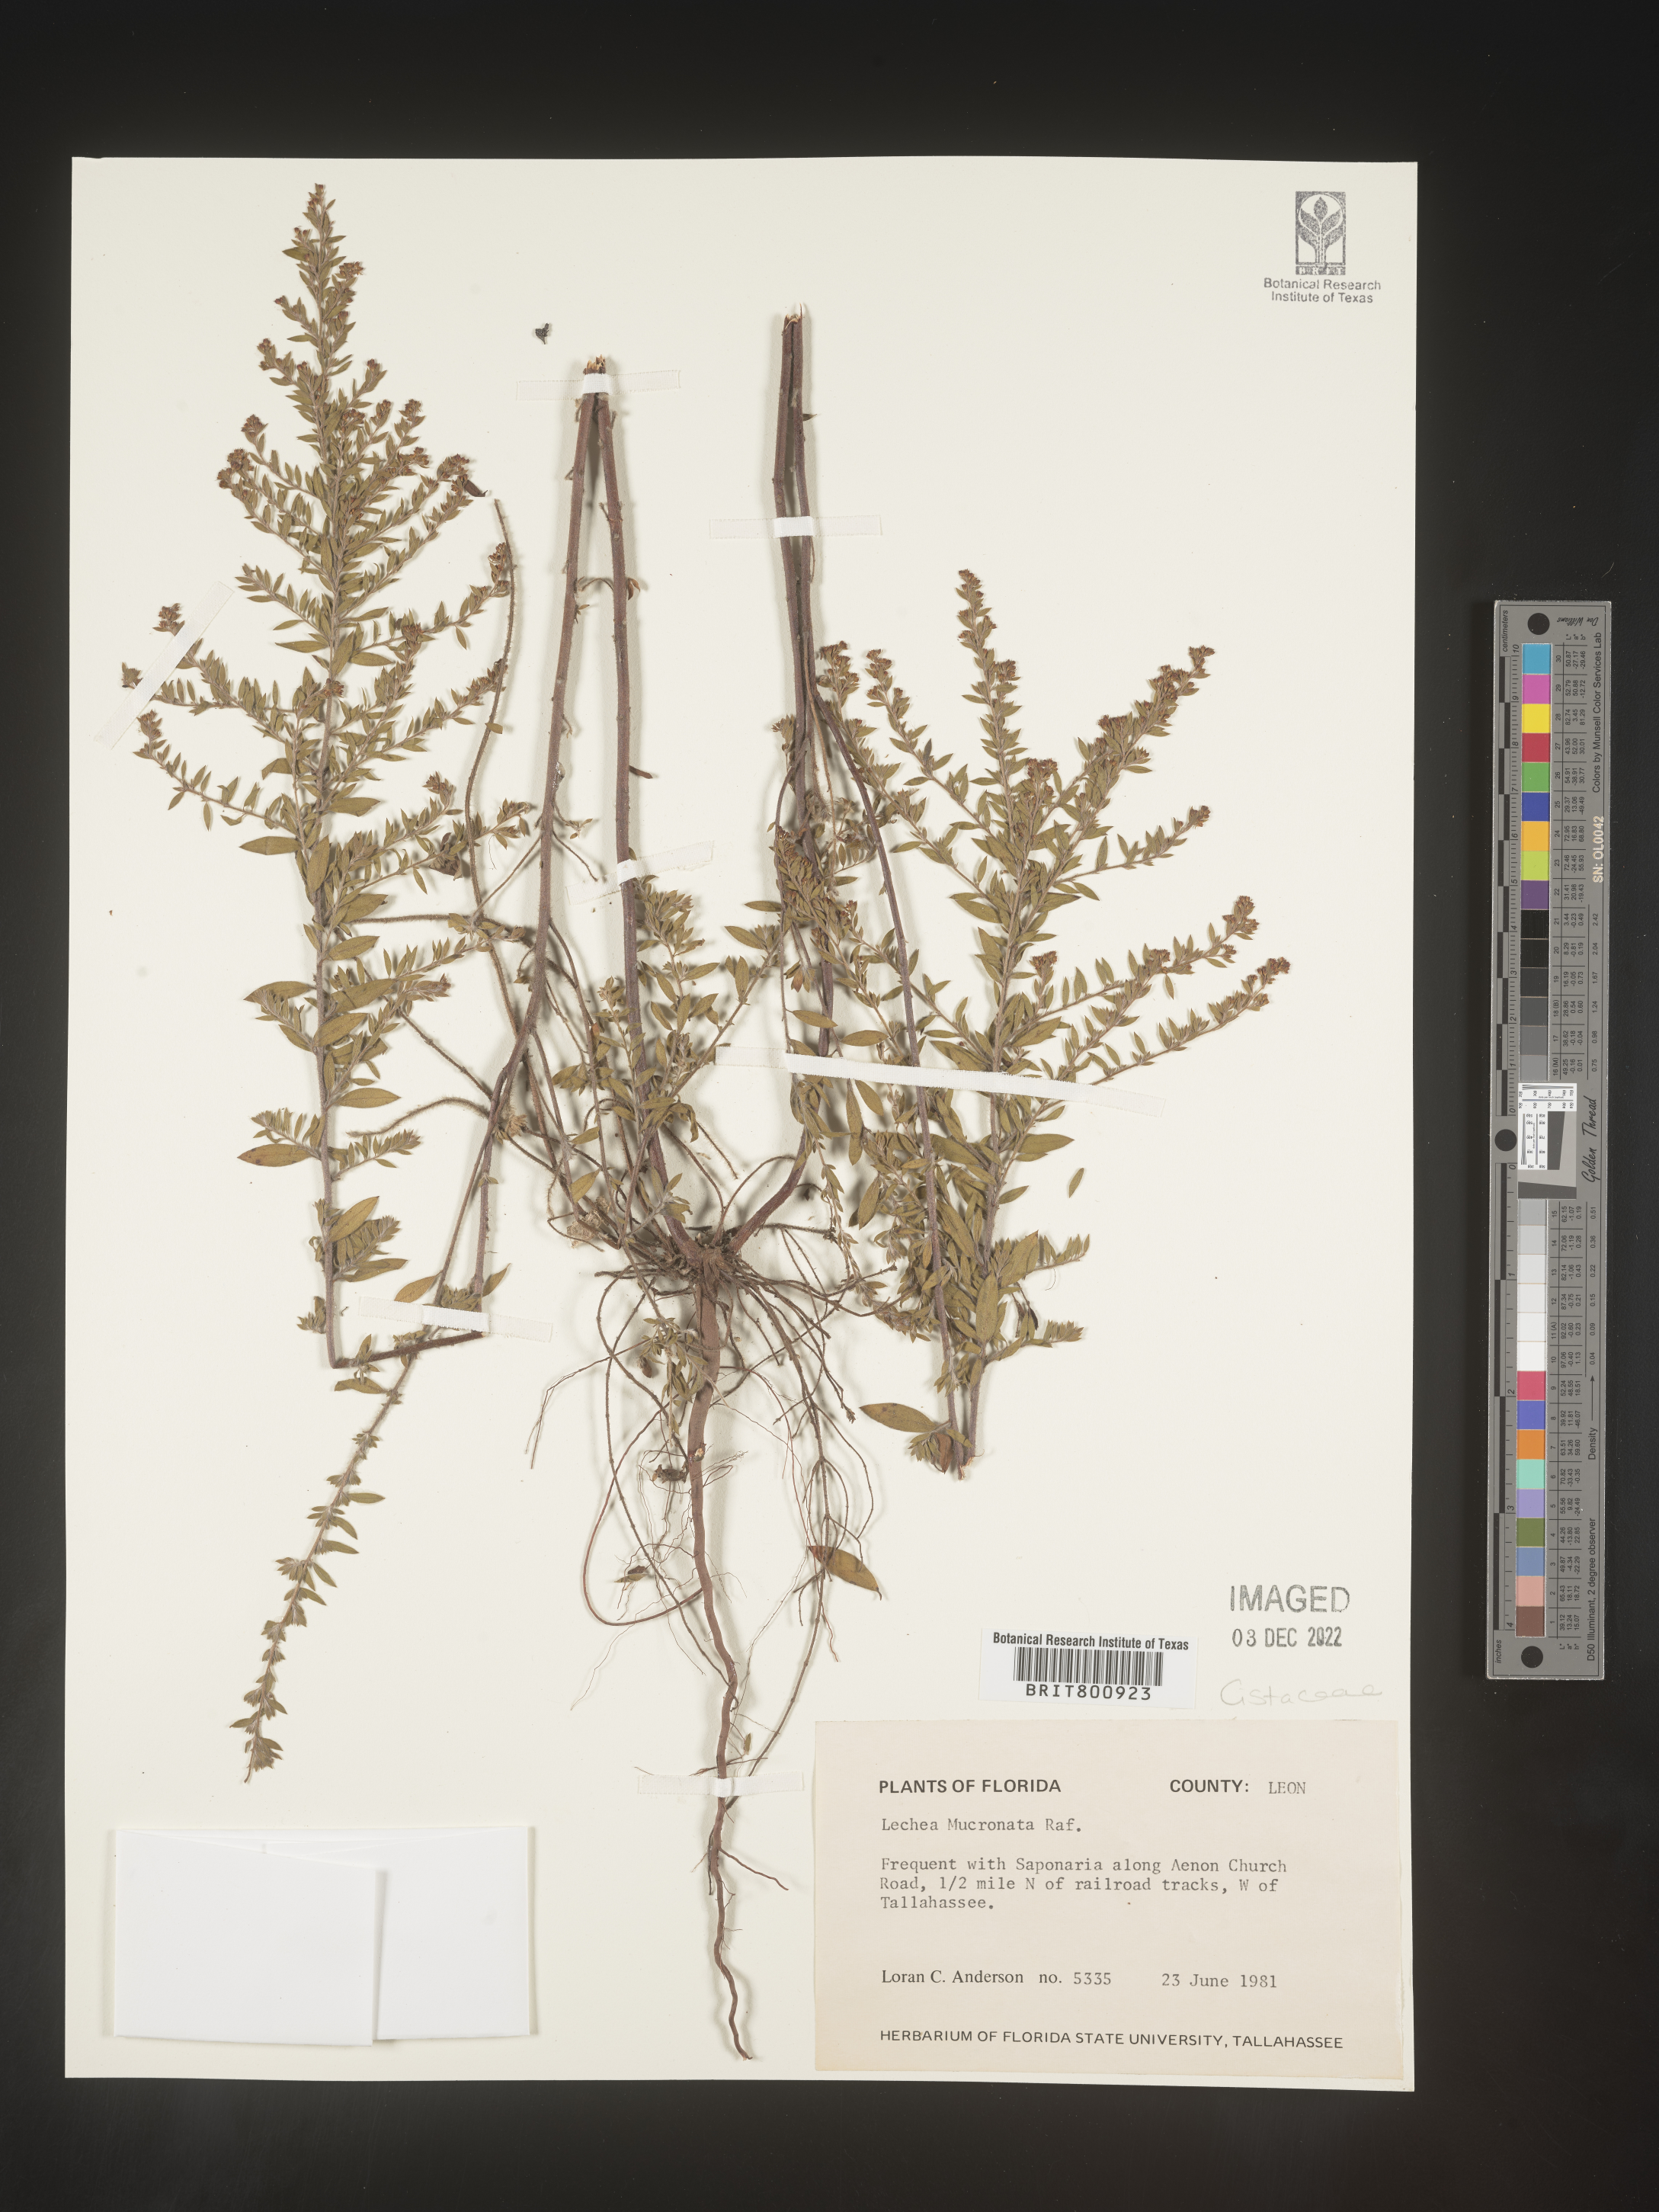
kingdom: Plantae
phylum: Tracheophyta
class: Magnoliopsida
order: Malvales
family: Cistaceae
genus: Lechea
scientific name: Lechea mucronata
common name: Hairy pinweed
